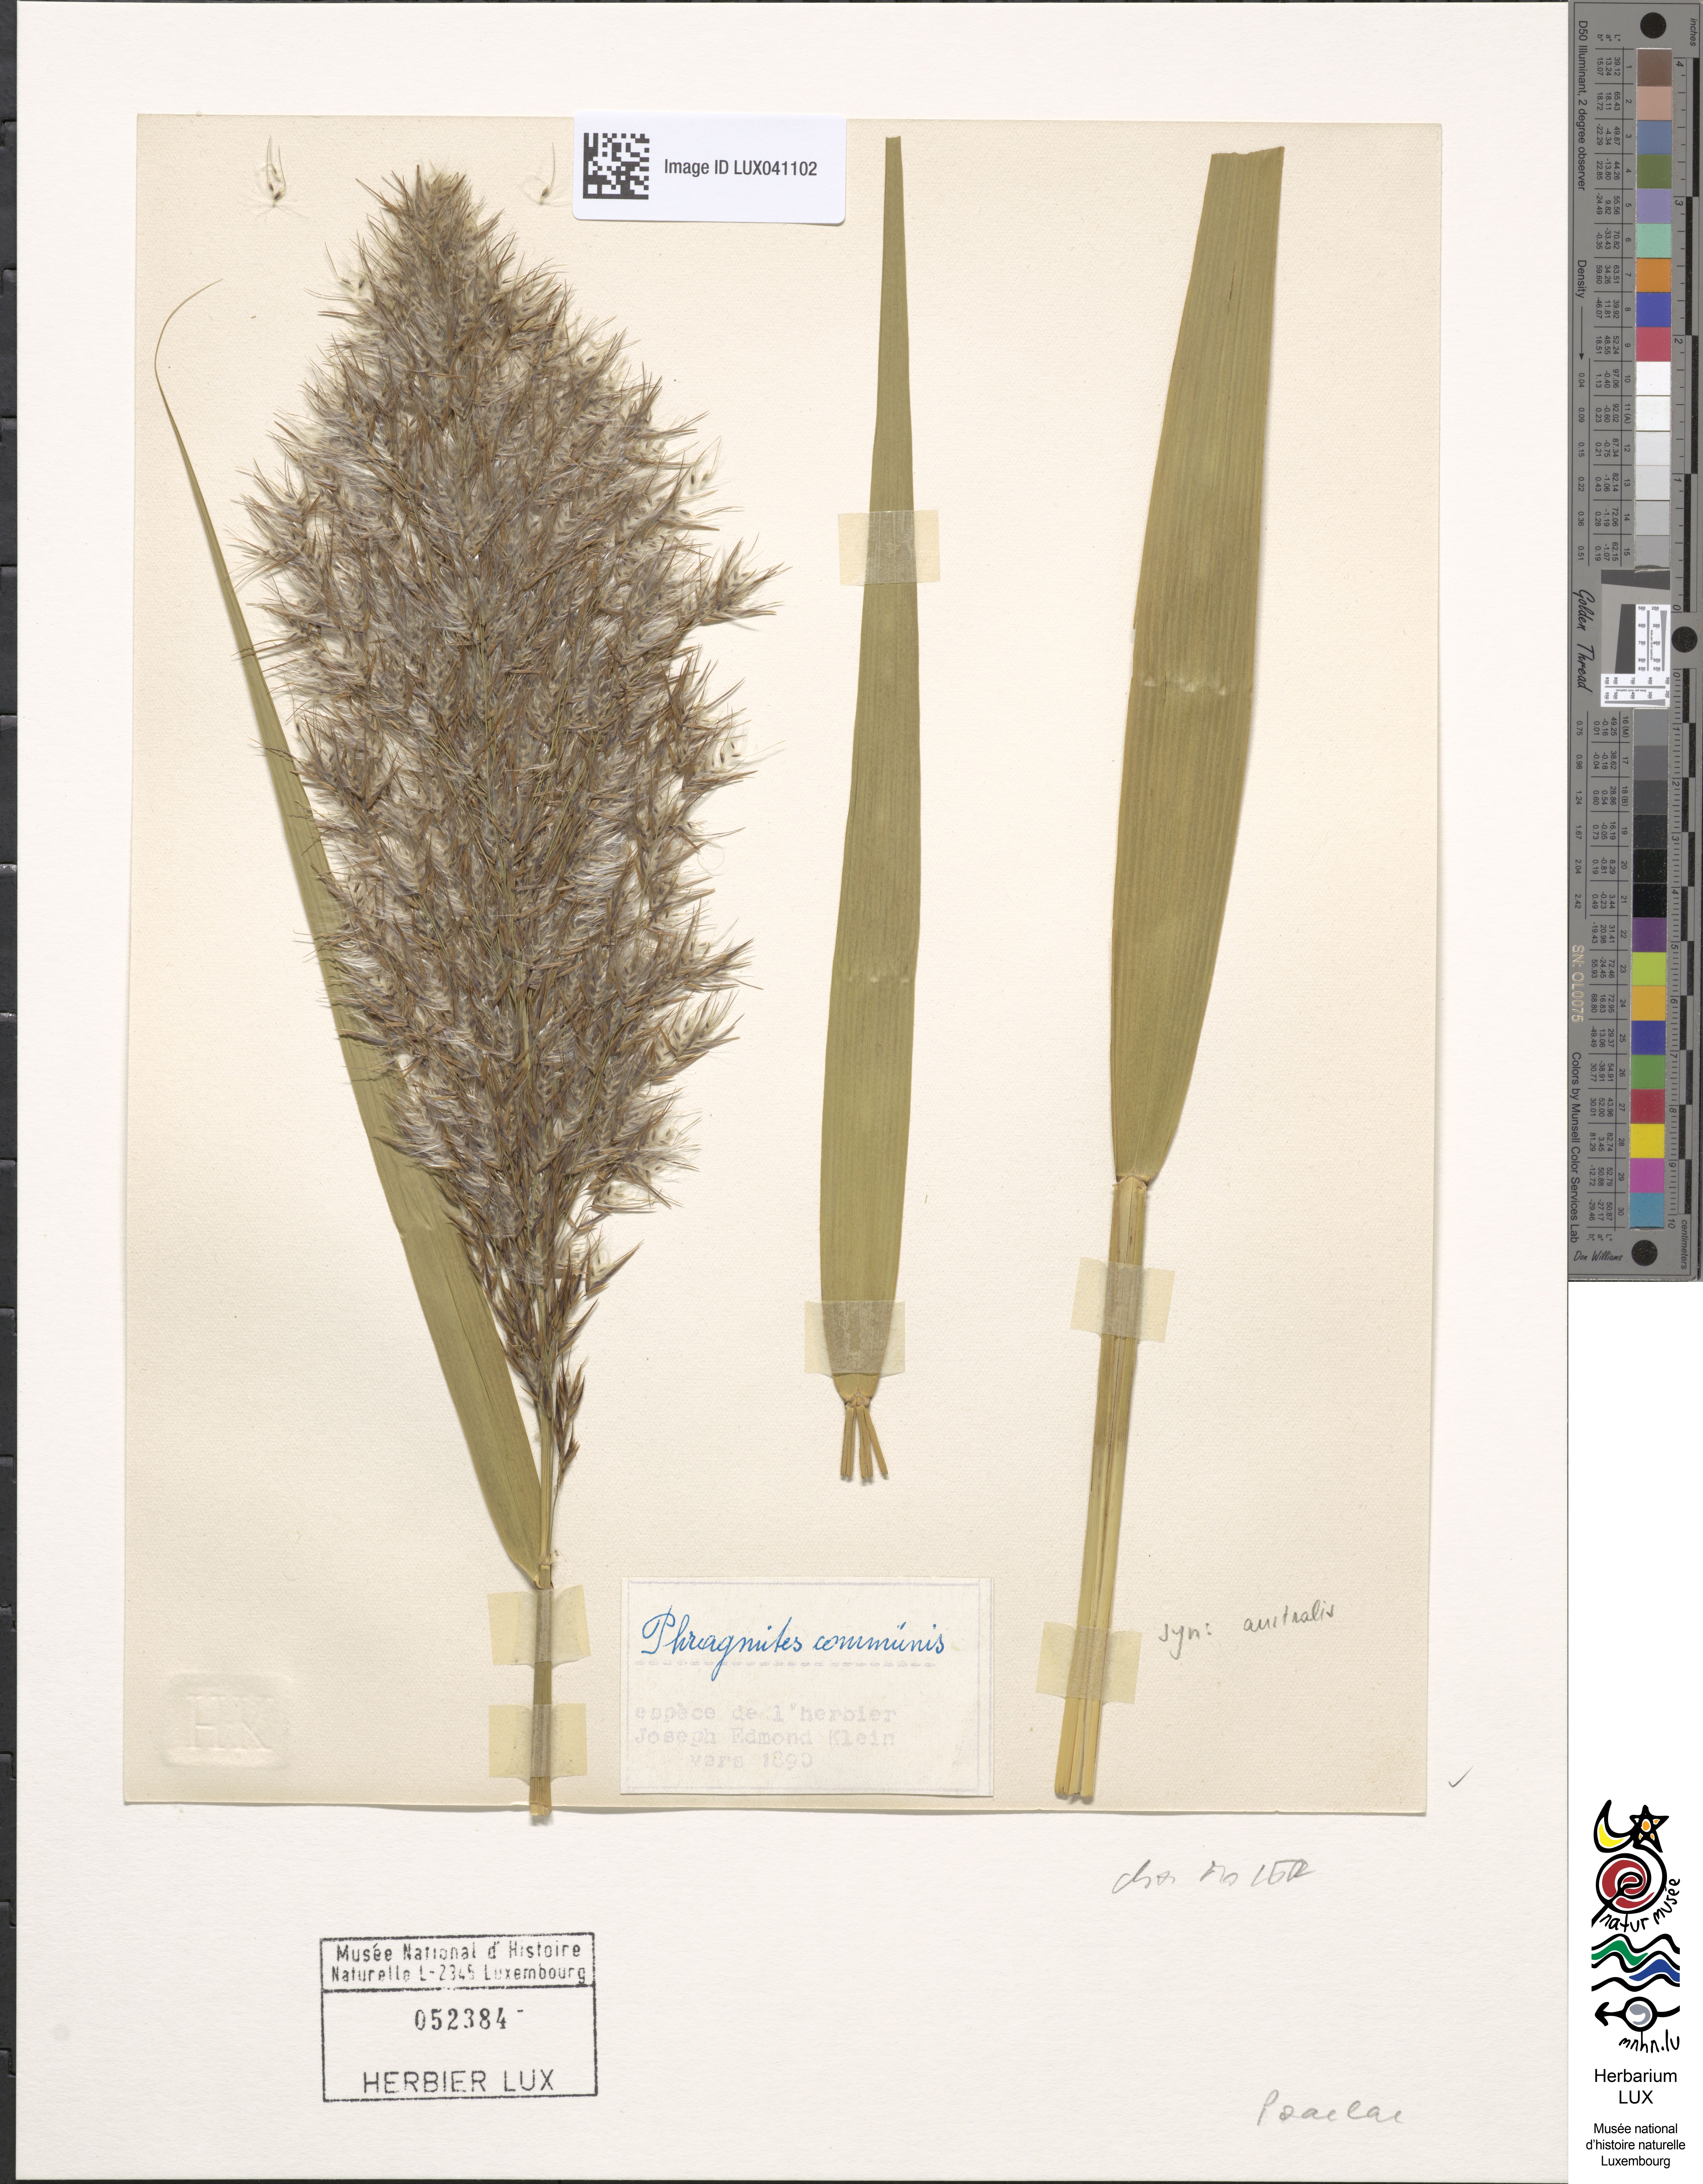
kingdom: Plantae
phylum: Tracheophyta
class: Liliopsida
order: Poales
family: Poaceae
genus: Phragmites
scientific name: Phragmites australis
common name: Common reed
